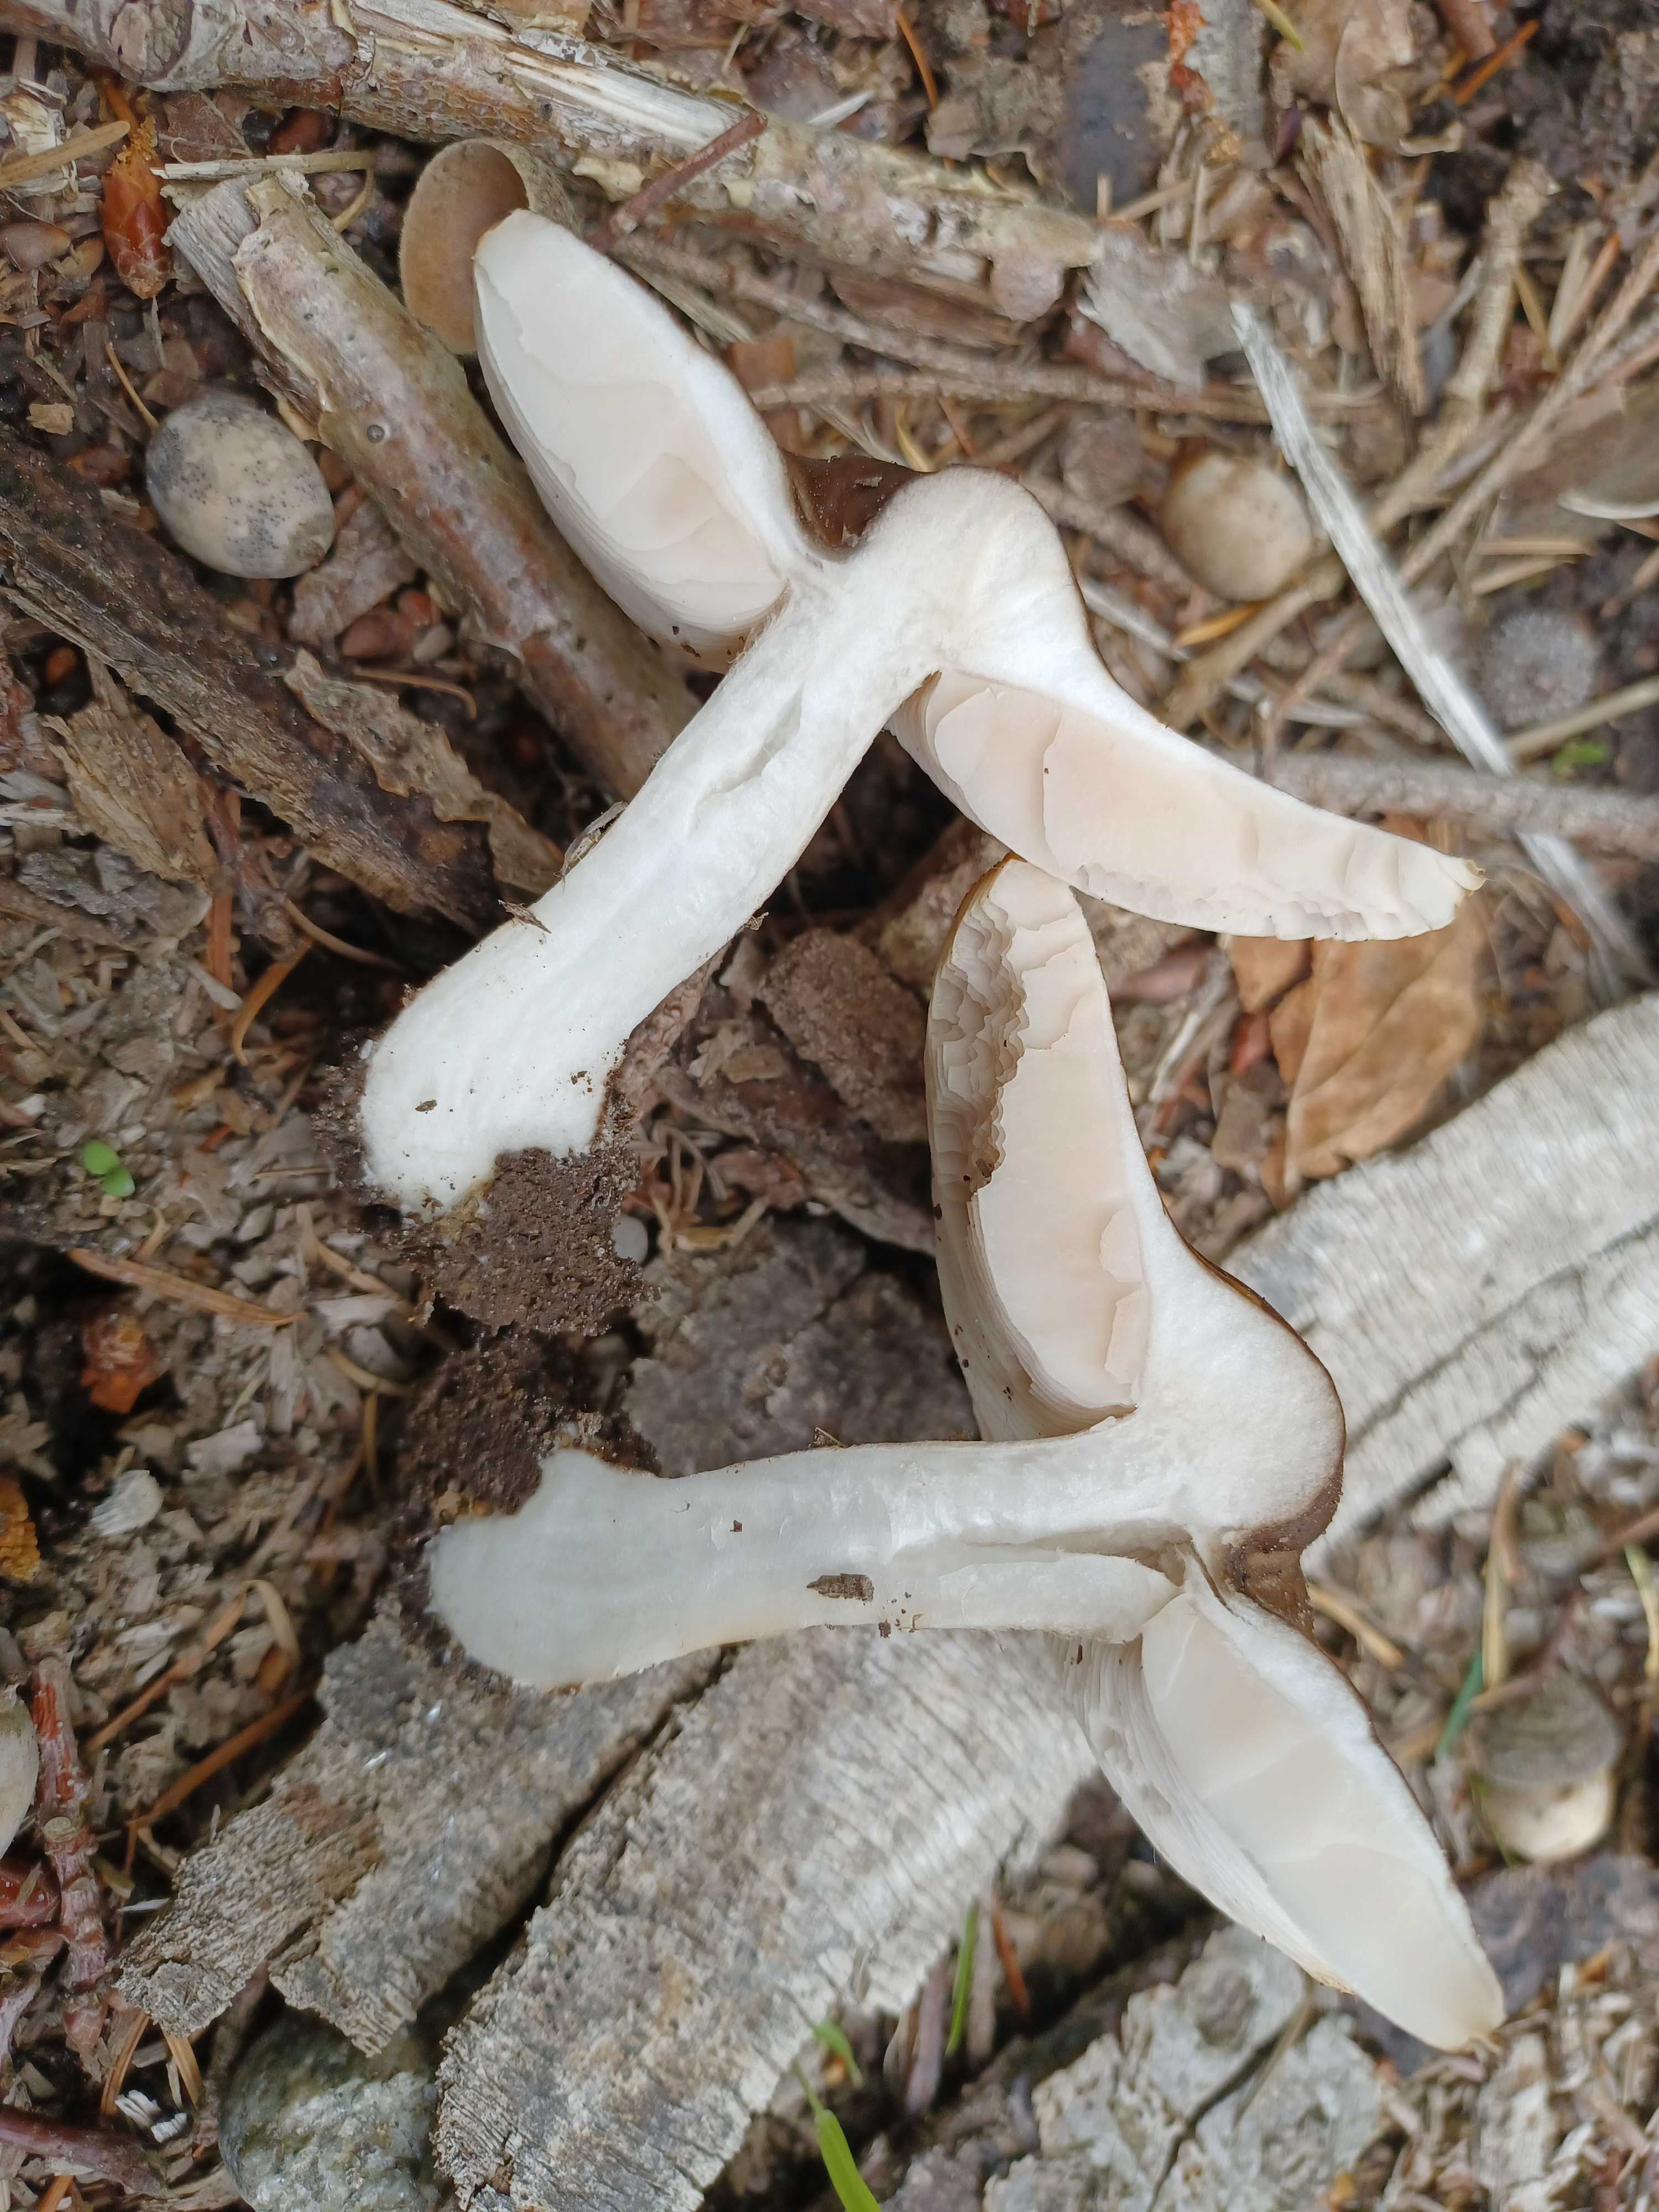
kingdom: Fungi
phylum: Basidiomycota
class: Agaricomycetes
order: Agaricales
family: Pluteaceae
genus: Pluteus
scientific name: Pluteus cervinus
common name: sodfarvet skærmhat
